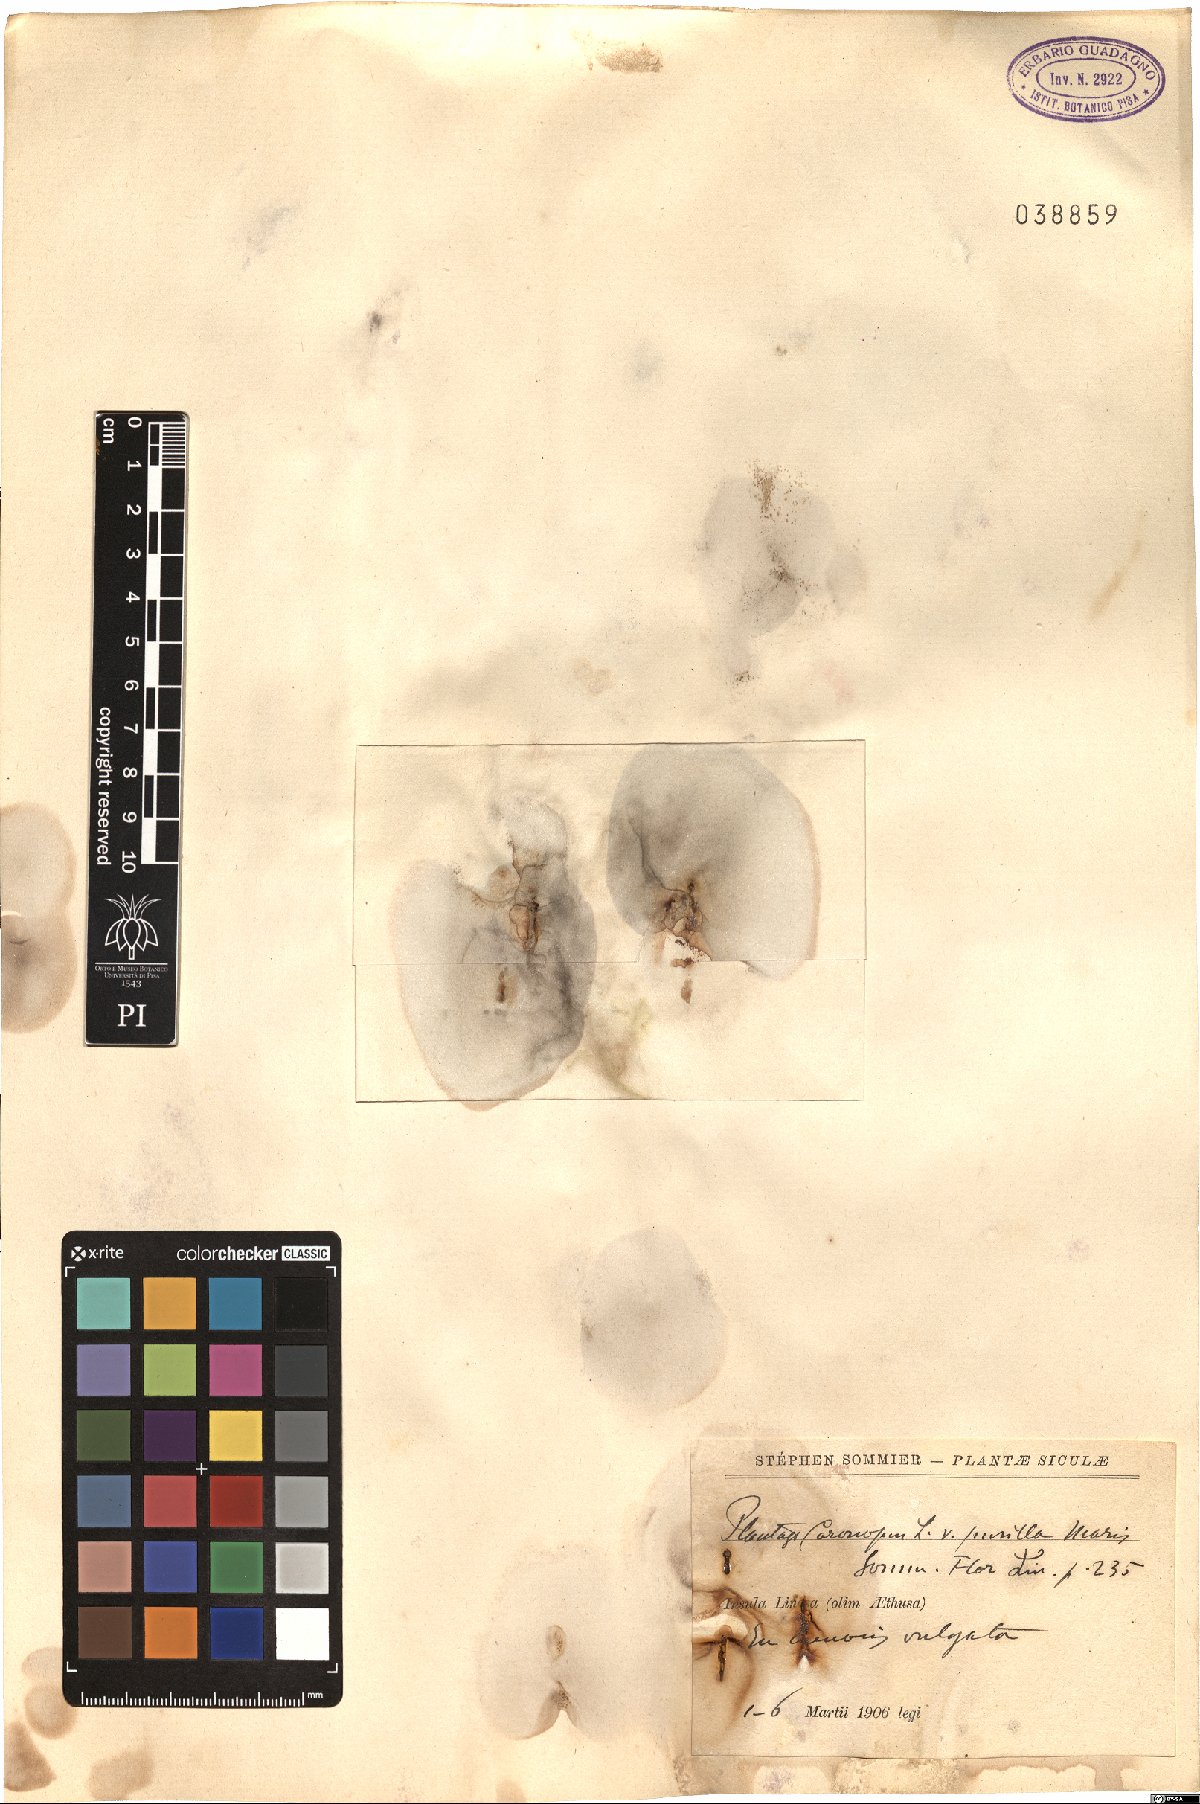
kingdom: Plantae
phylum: Tracheophyta
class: Magnoliopsida
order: Lamiales
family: Plantaginaceae
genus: Plantago
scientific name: Plantago coronopus
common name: Buck's-horn plantain
